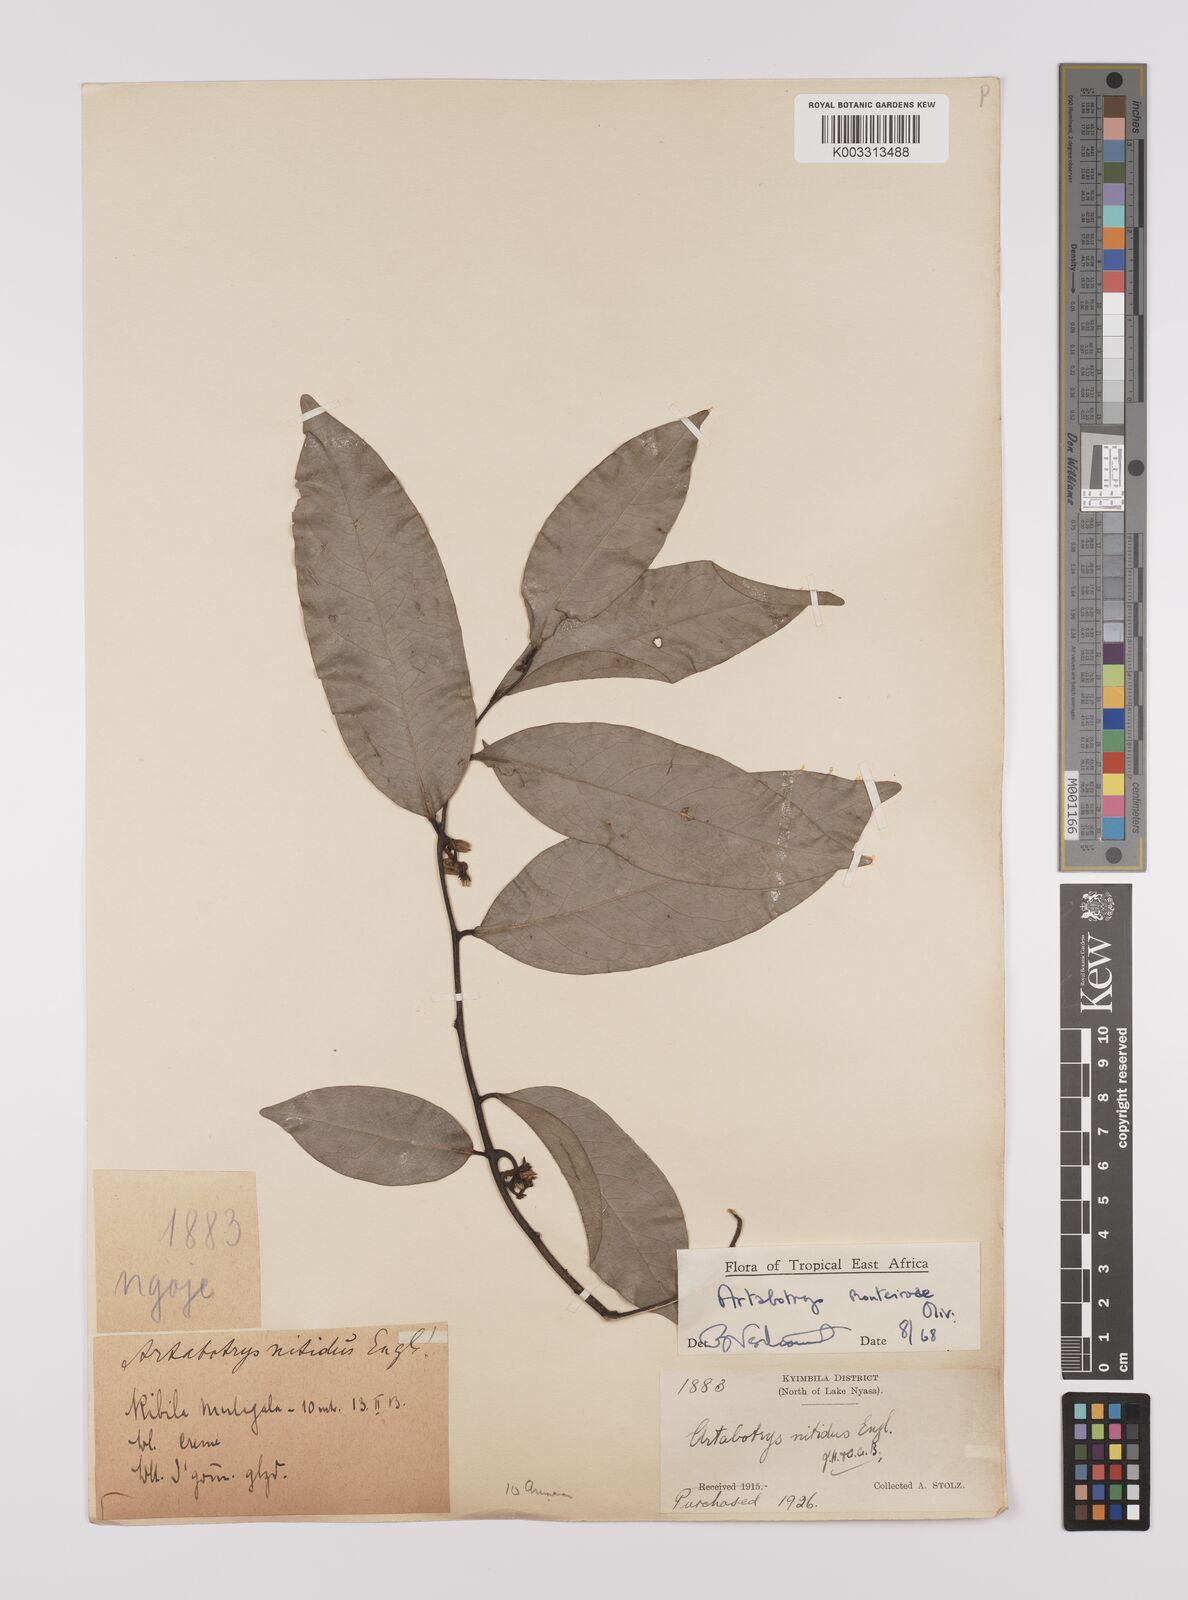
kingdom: Plantae
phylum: Tracheophyta
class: Magnoliopsida
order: Magnoliales
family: Annonaceae
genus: Artabotrys
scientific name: Artabotrys monteiroae
